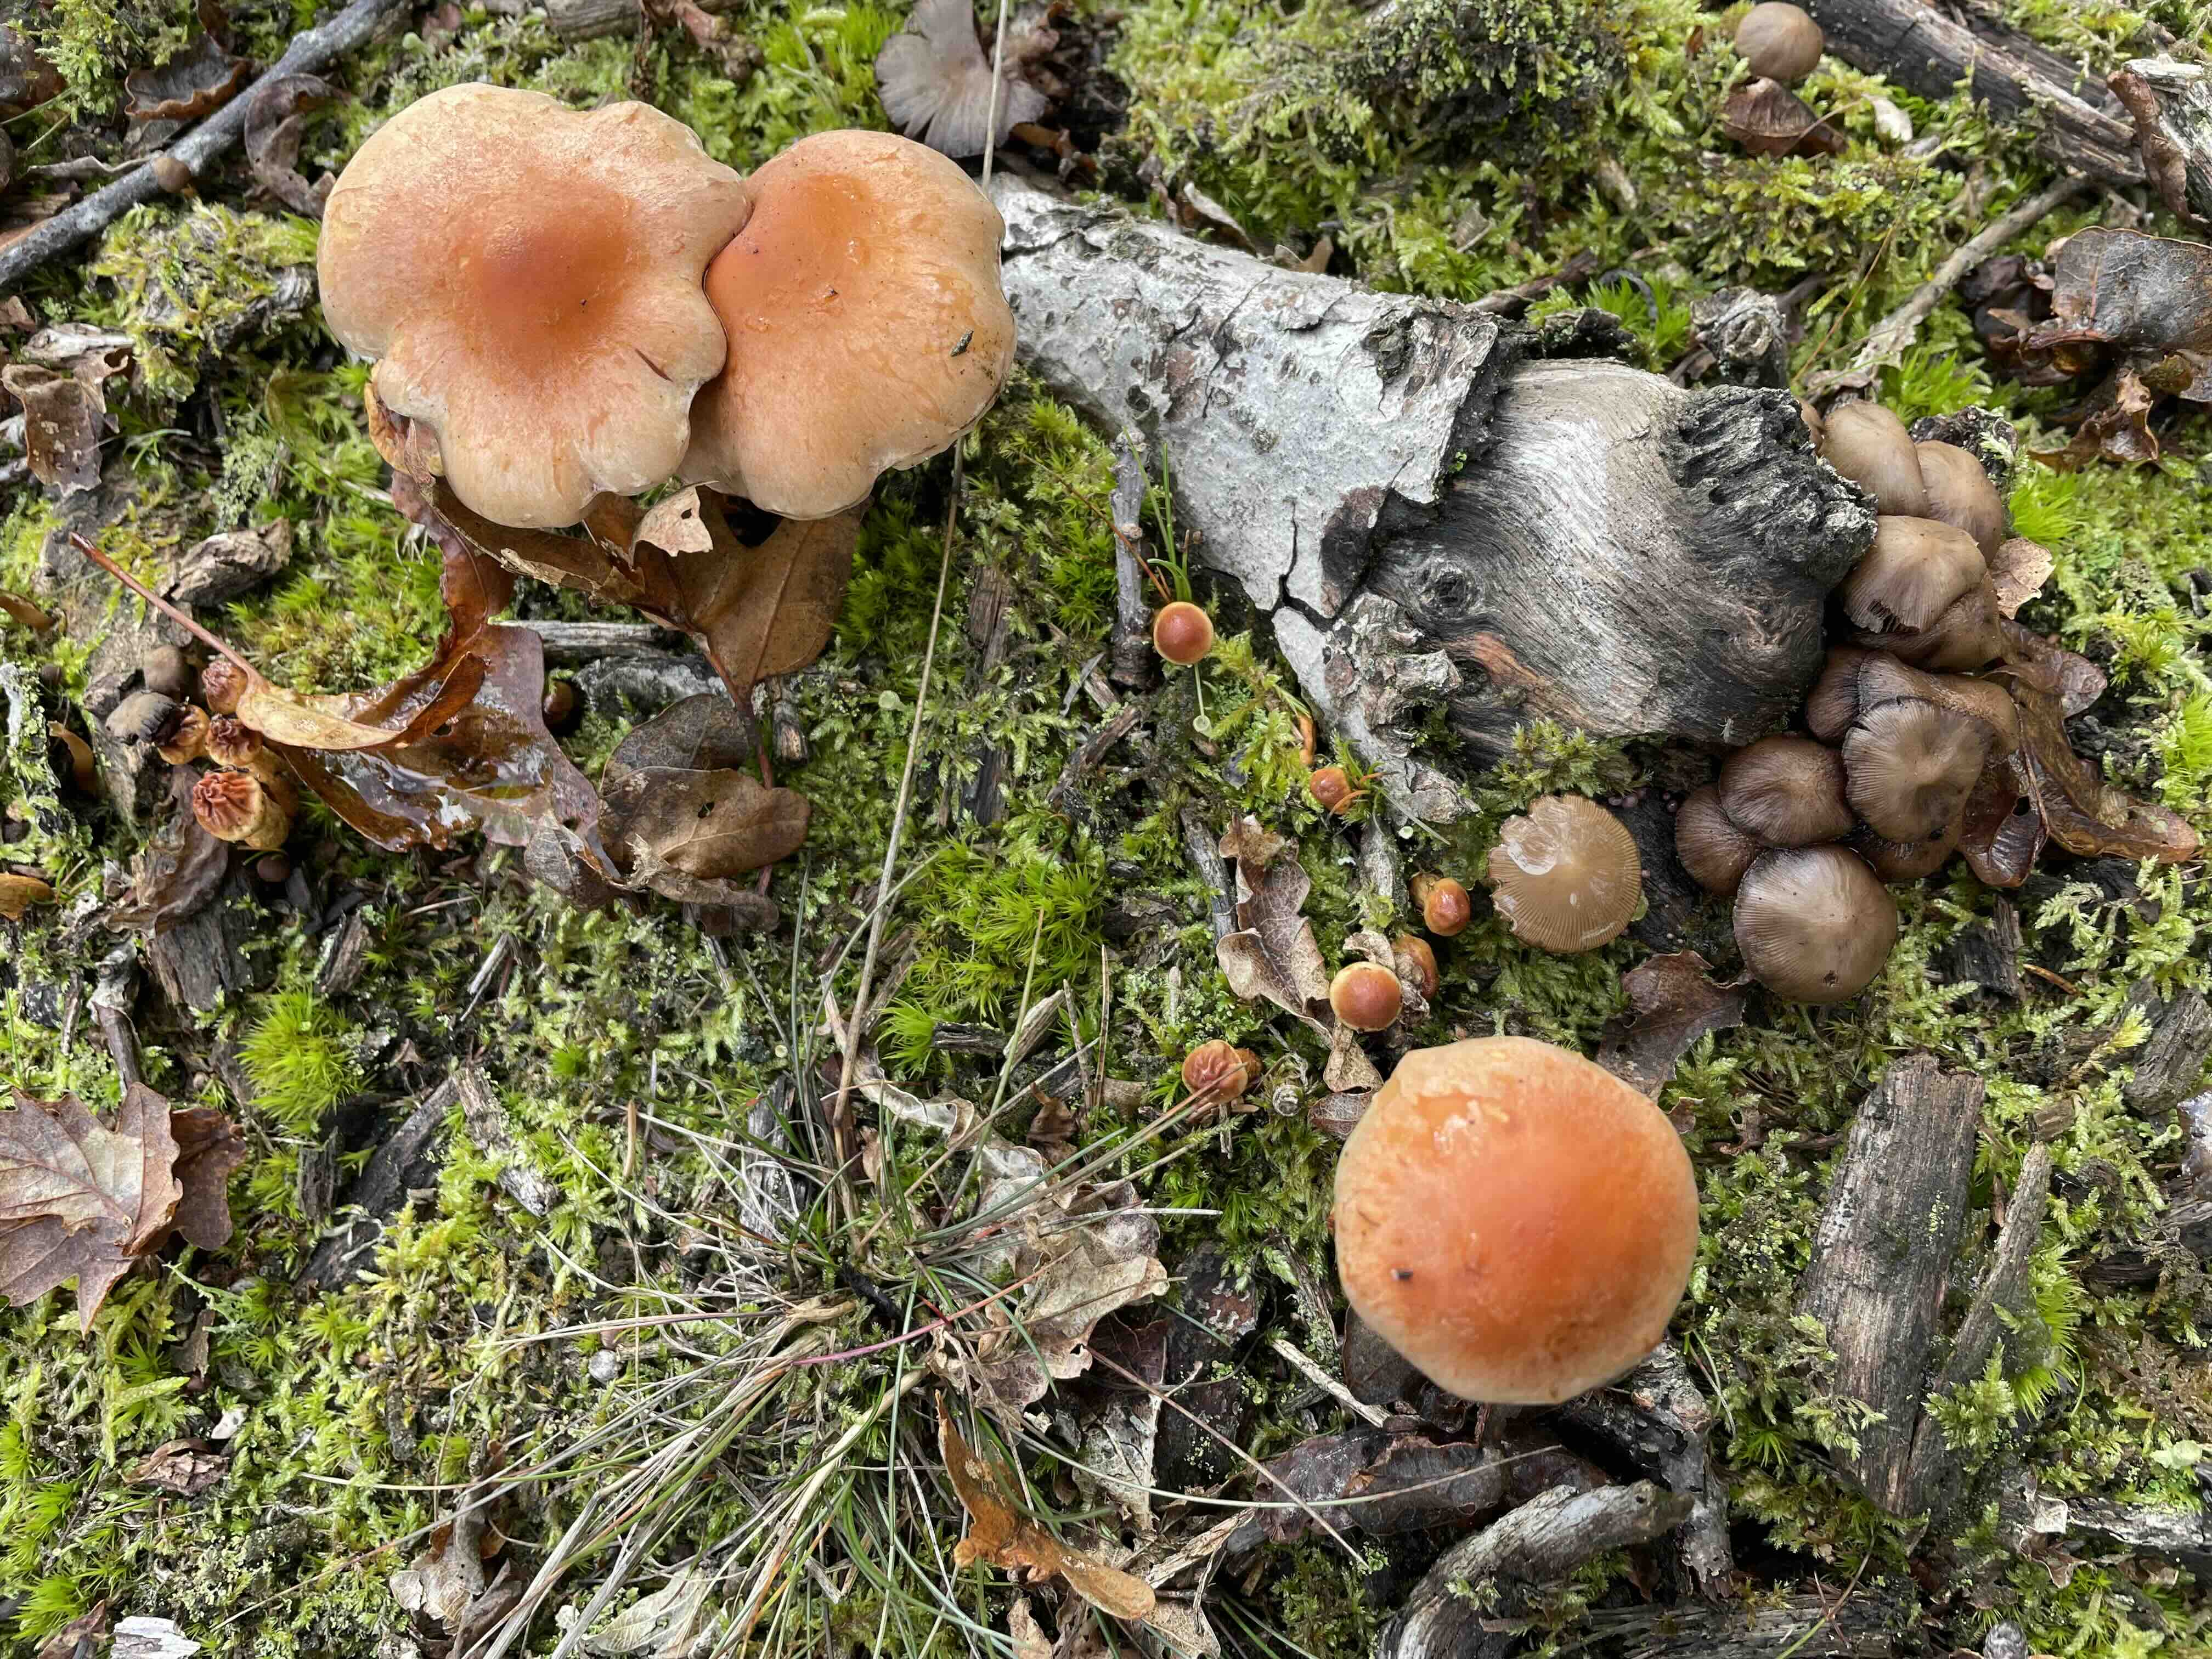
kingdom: Fungi
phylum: Basidiomycota
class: Agaricomycetes
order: Agaricales
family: Strophariaceae
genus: Hypholoma
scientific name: Hypholoma lateritium
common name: teglrød svovlhat
